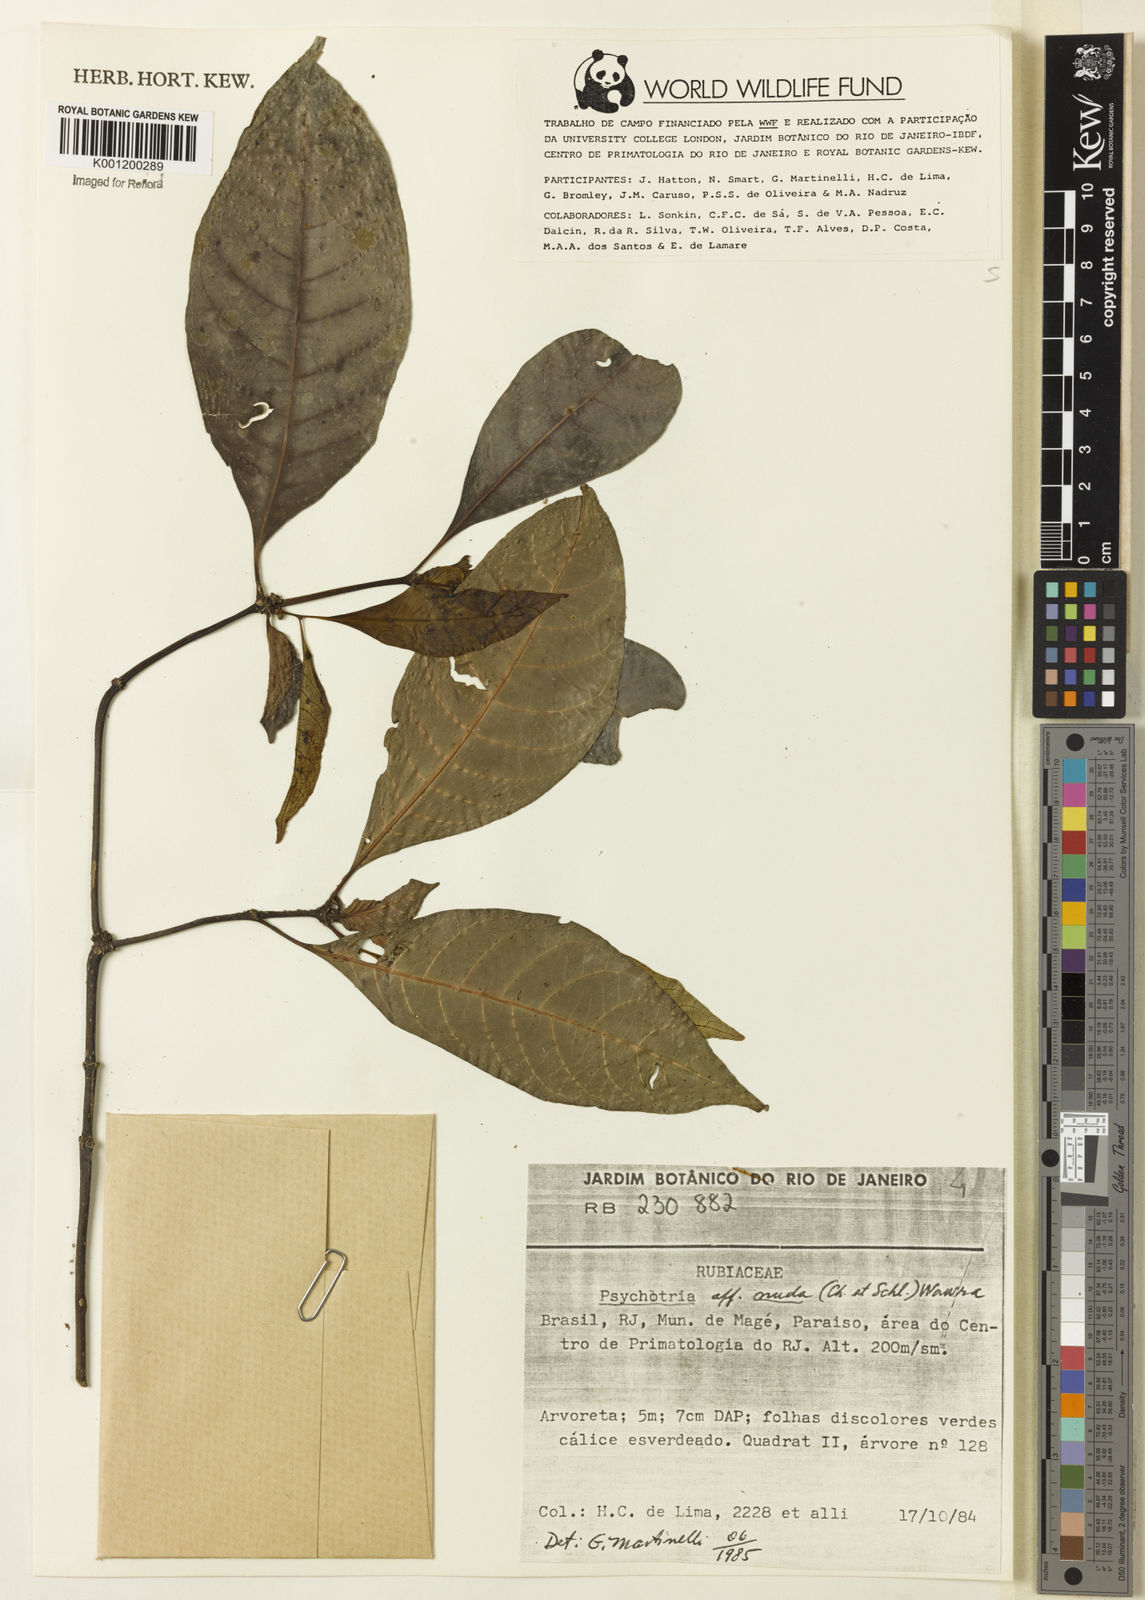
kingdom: Plantae
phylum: Tracheophyta
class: Magnoliopsida
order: Gentianales
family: Rubiaceae
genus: Psychotria
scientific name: Psychotria nuda
